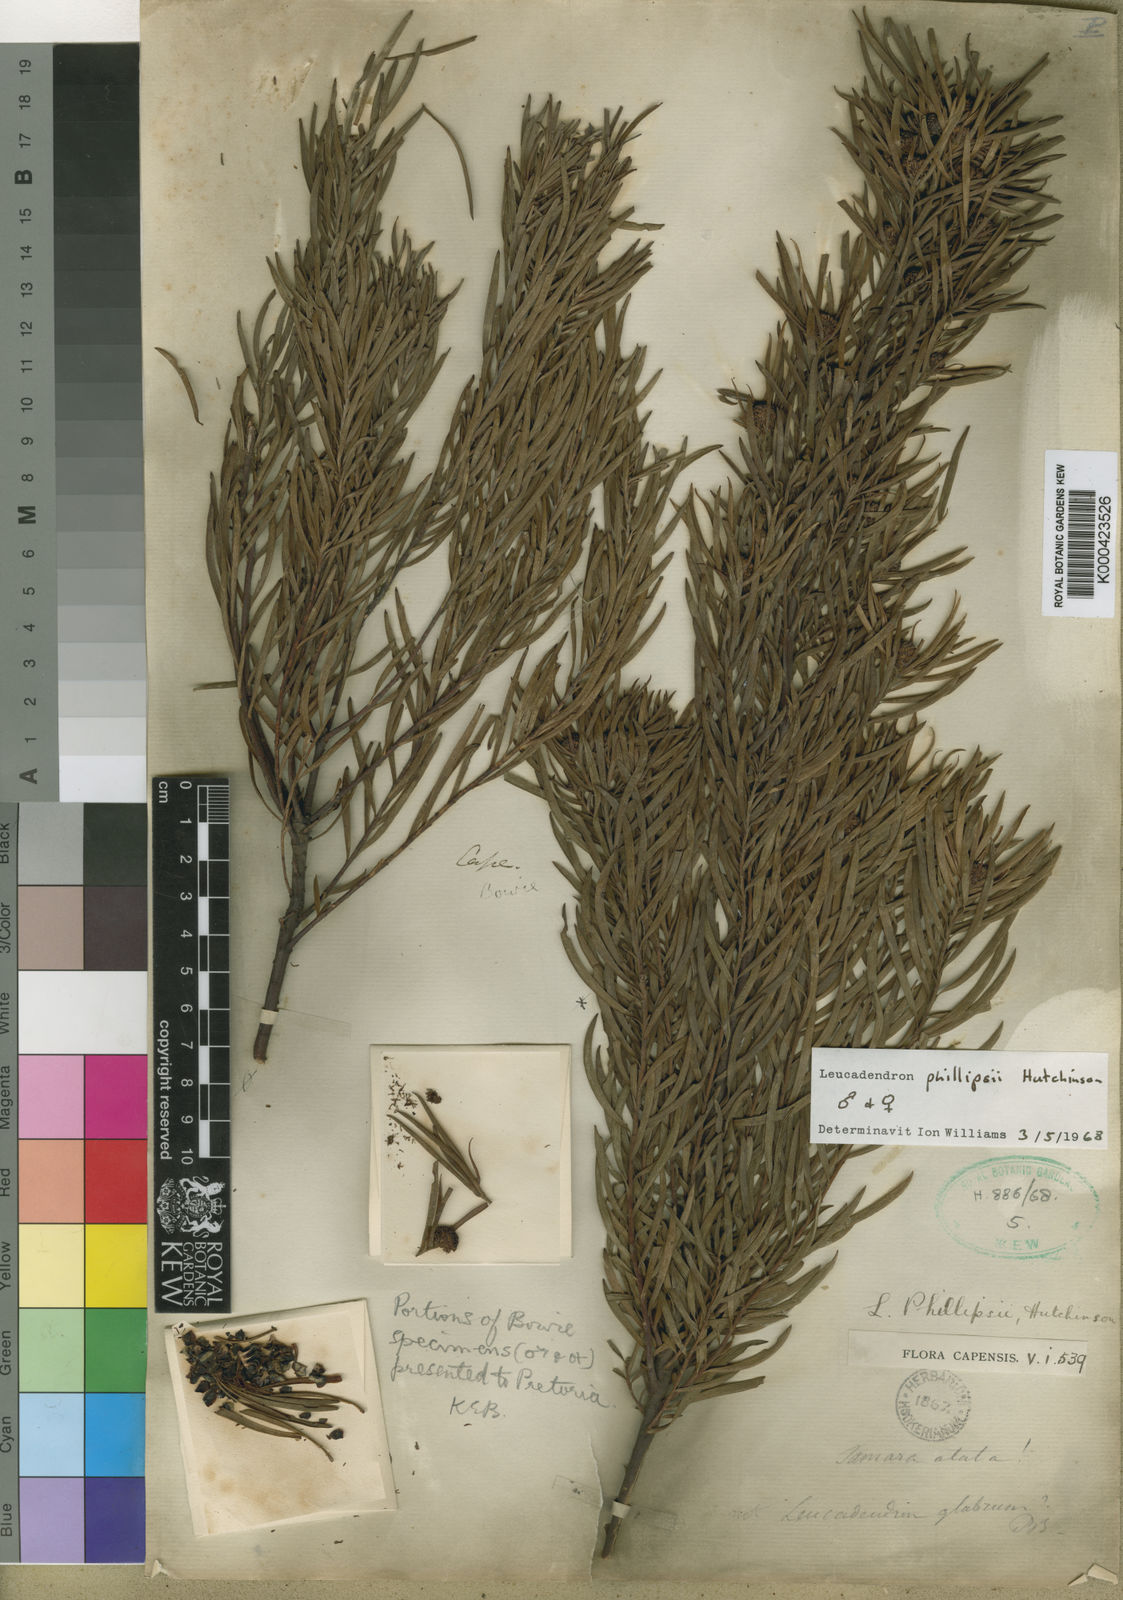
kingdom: Plantae
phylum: Tracheophyta
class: Magnoliopsida
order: Proteales
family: Proteaceae
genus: Leucadendron
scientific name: Leucadendron spissifolium
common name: Spear-leaf conebush
